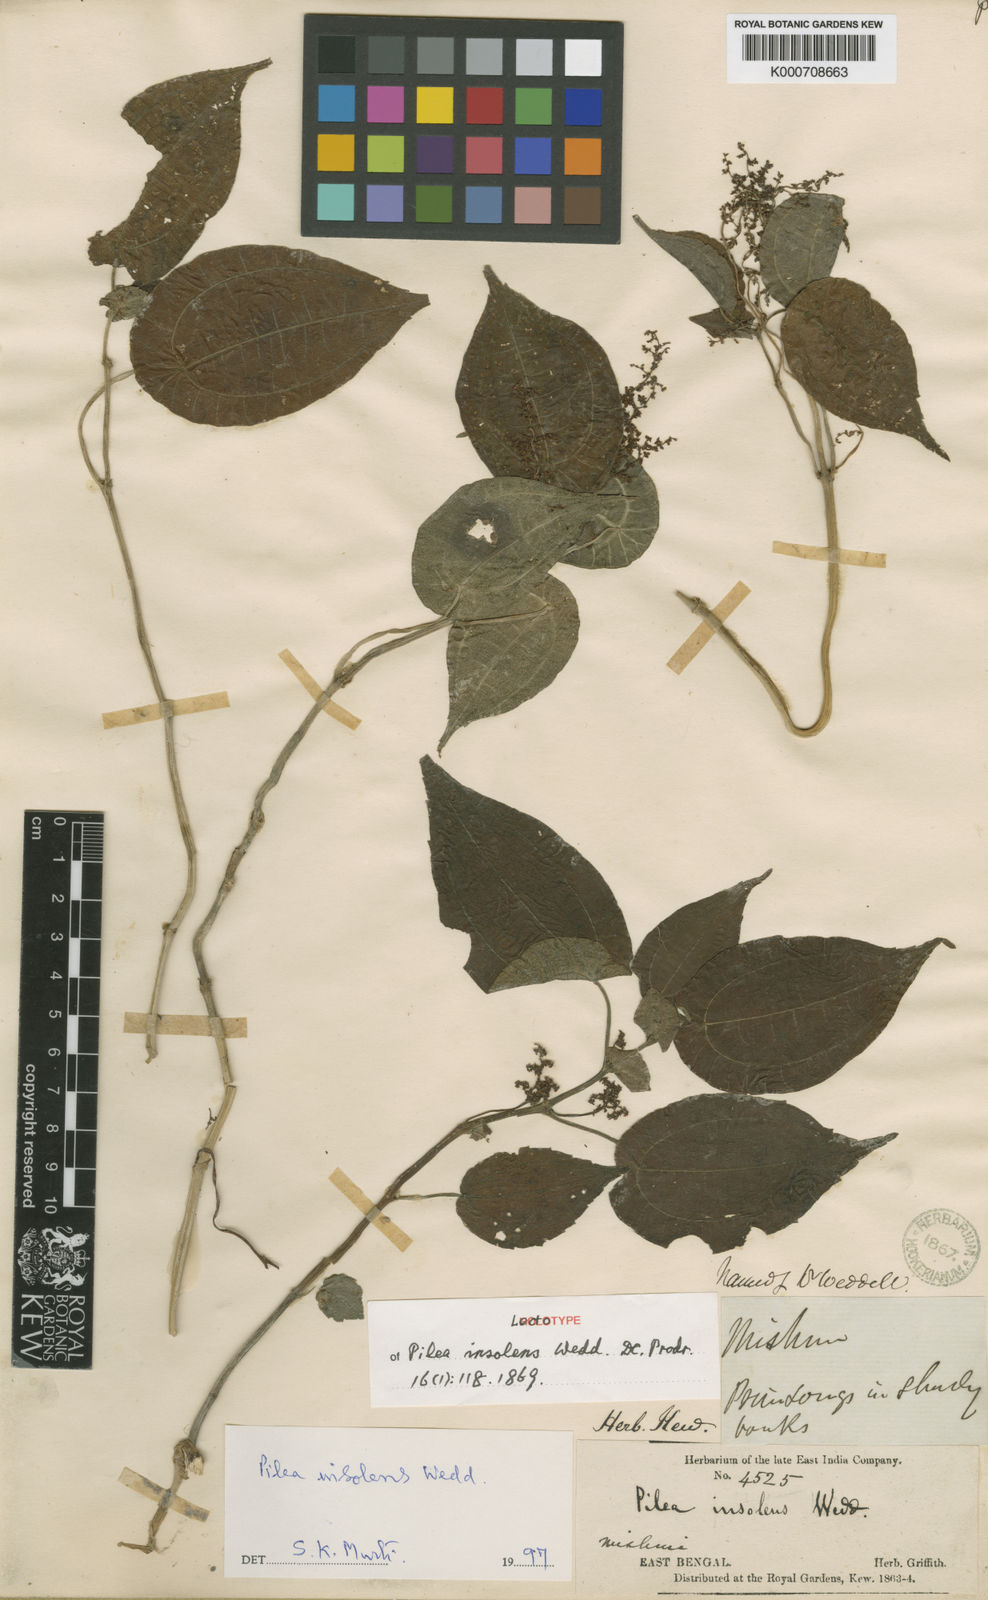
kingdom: Plantae
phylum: Tracheophyta
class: Magnoliopsida
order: Rosales
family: Urticaceae
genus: Pilea
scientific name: Pilea insolens
